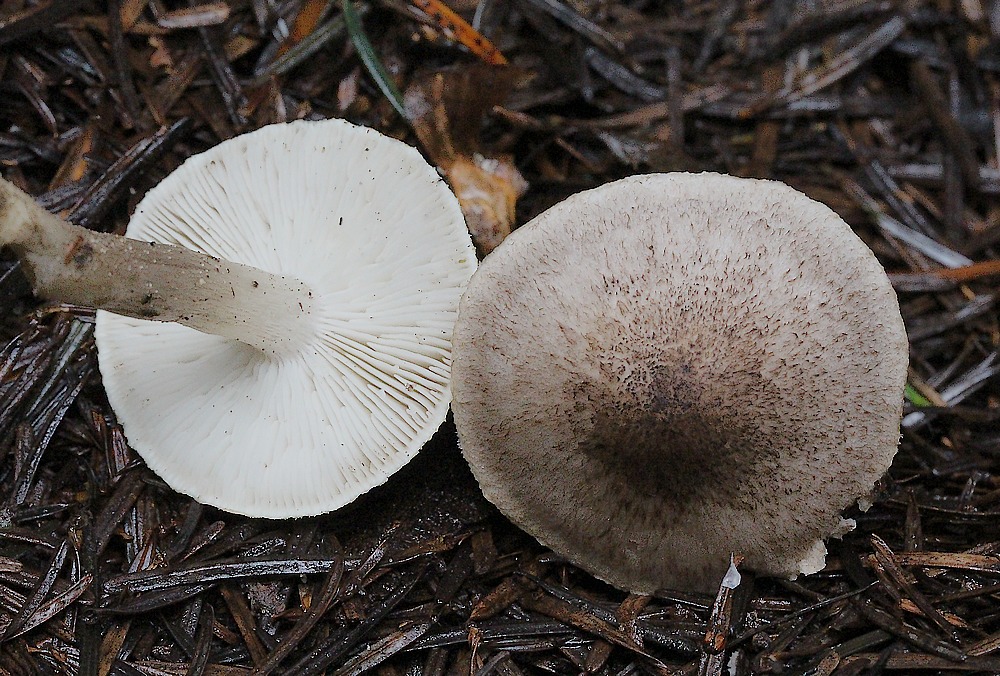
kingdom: Fungi
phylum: Basidiomycota
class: Agaricomycetes
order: Agaricales
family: Tricholomataceae
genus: Tricholoma
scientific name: Tricholoma argyraceum
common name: slør-ridderhat
